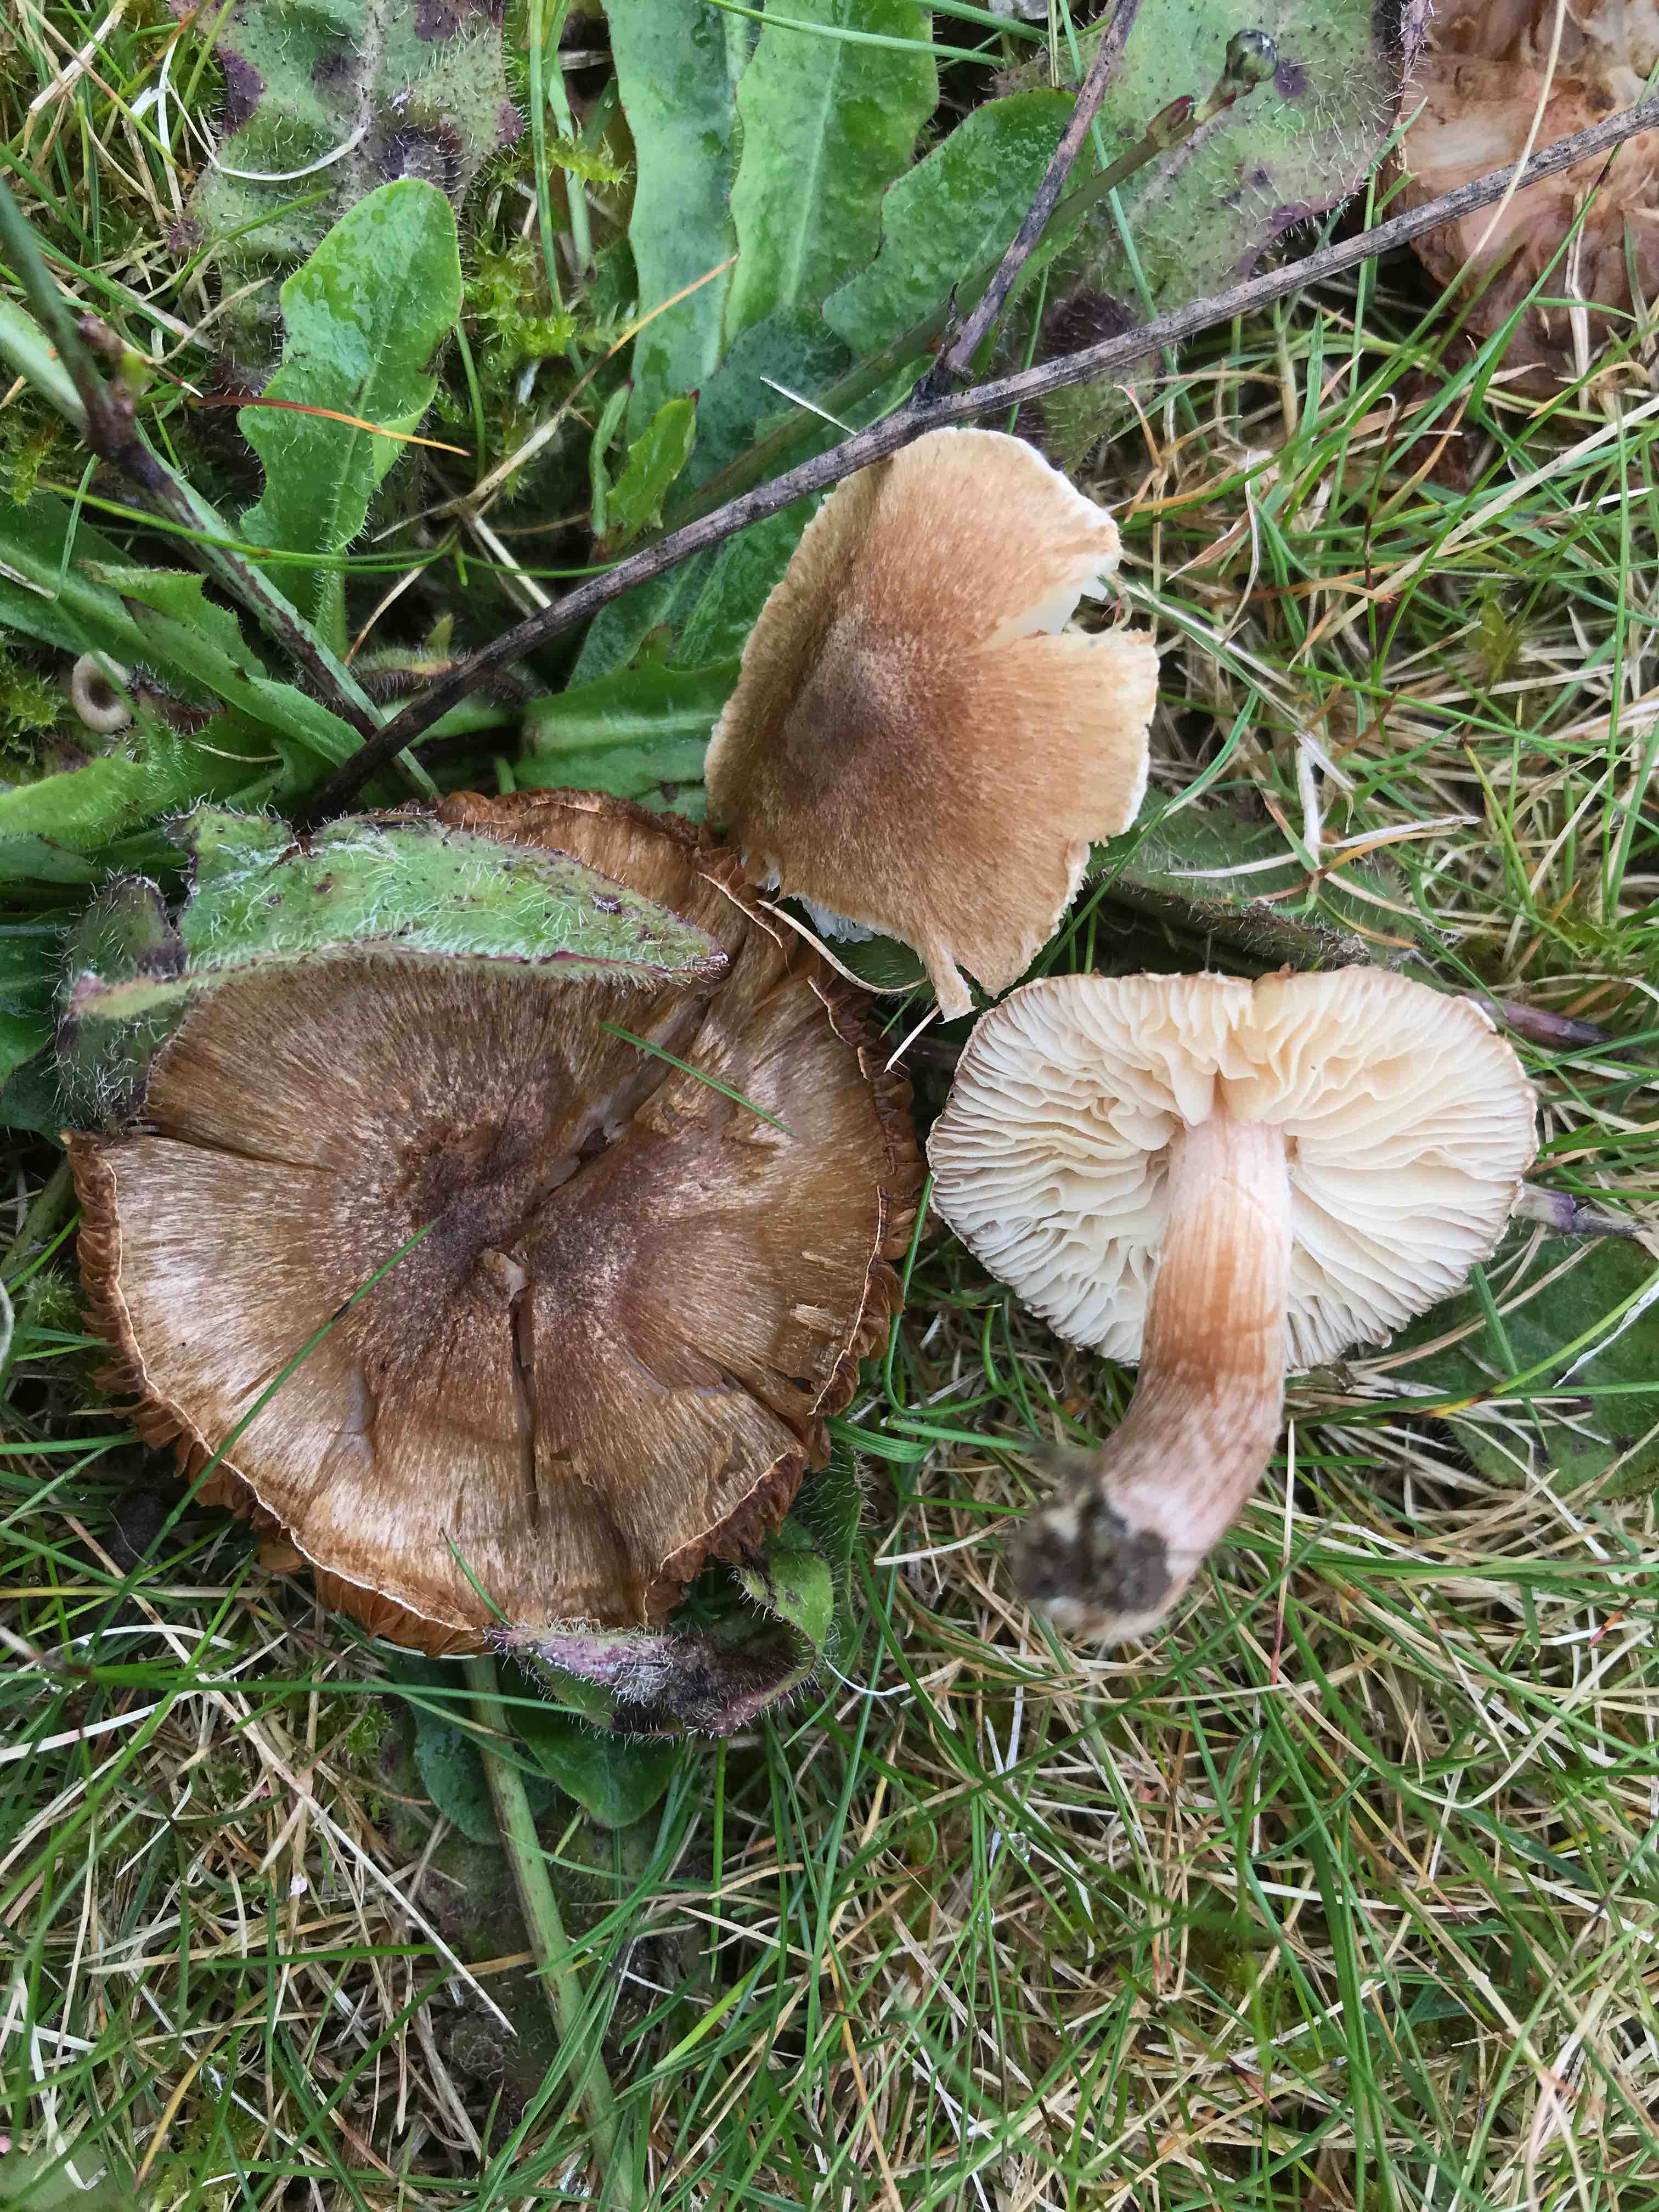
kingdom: Fungi
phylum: Basidiomycota
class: Agaricomycetes
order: Agaricales
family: Inocybaceae
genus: Inocybe
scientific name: Inocybe
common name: trævlhat
